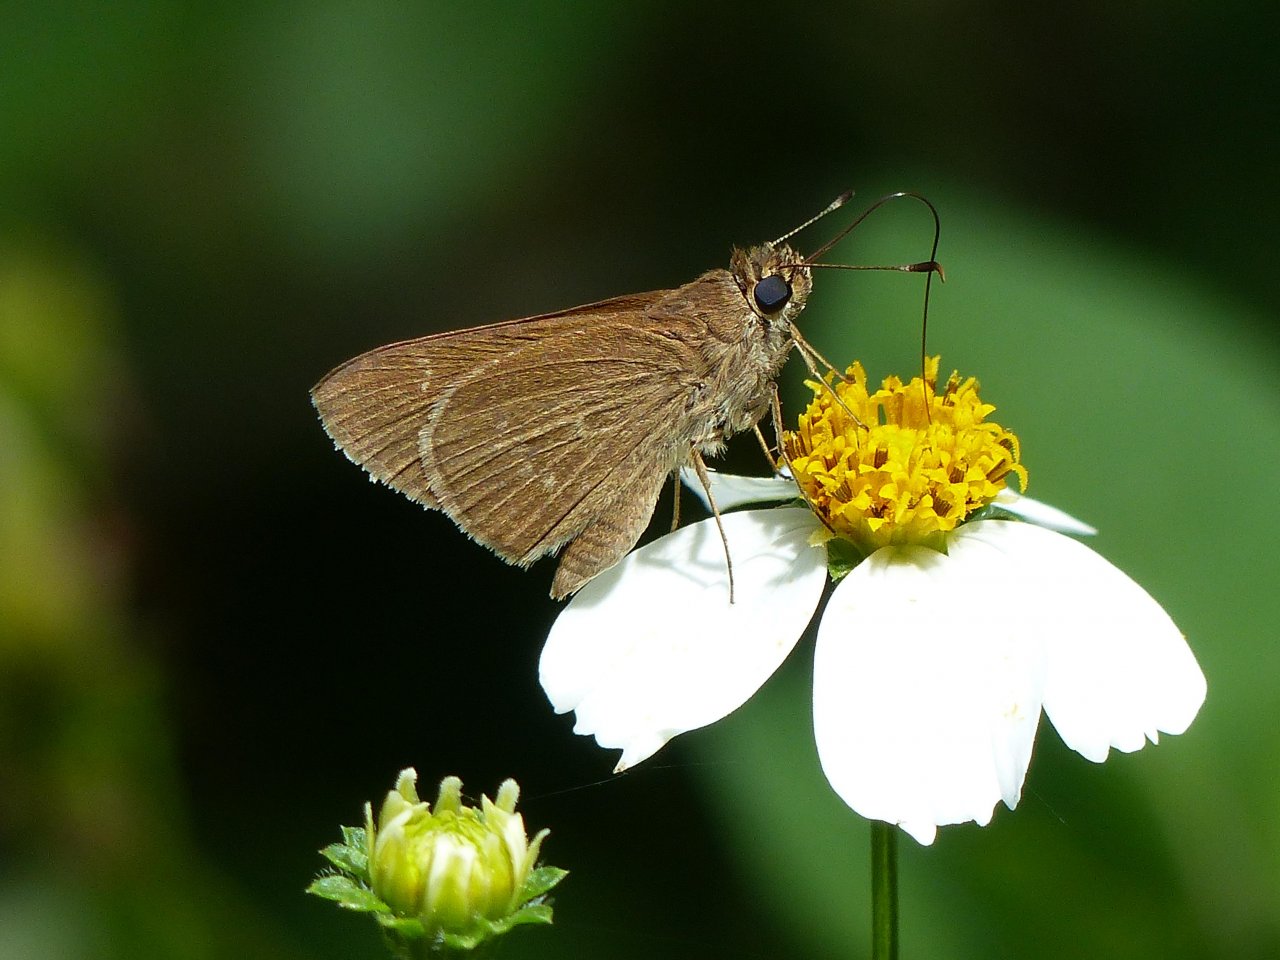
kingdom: Animalia
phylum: Arthropoda
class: Insecta
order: Lepidoptera
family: Hesperiidae
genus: Cymaenes
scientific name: Cymaenes tripunctus
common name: Three-spotted Skipper
